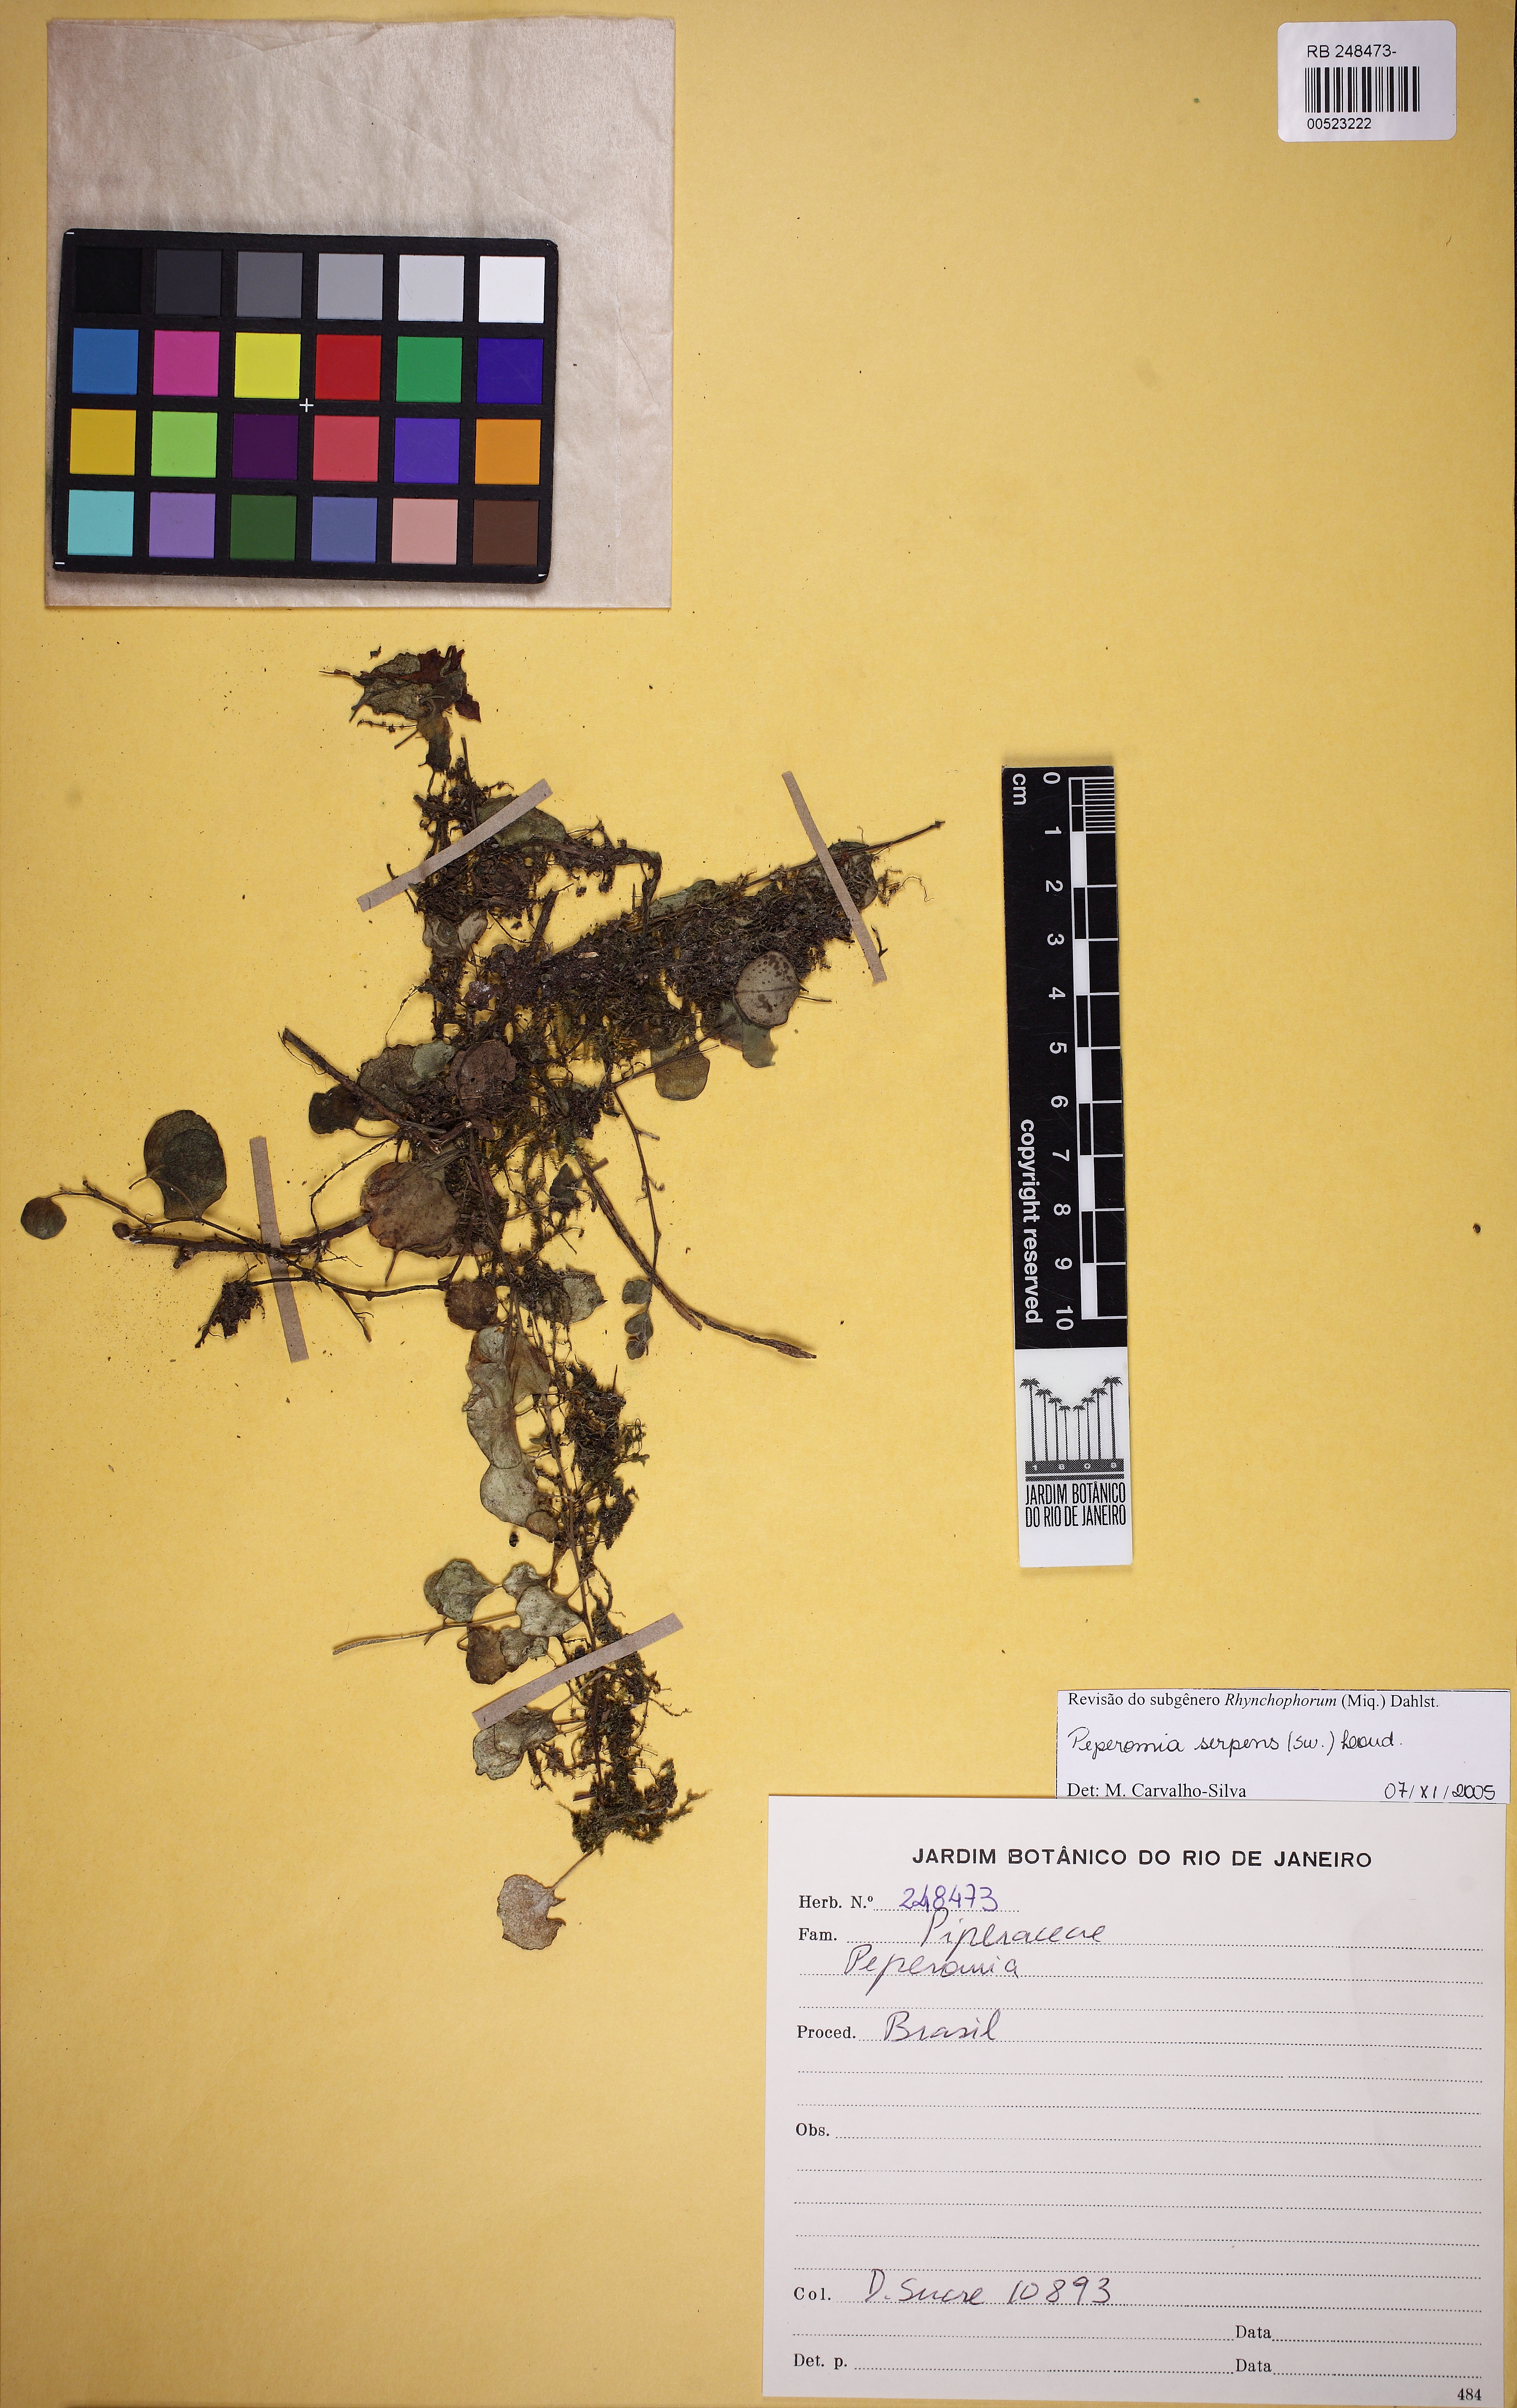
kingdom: Plantae
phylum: Tracheophyta
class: Magnoliopsida
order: Piperales
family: Piperaceae
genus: Peperomia
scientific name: Peperomia serpens
